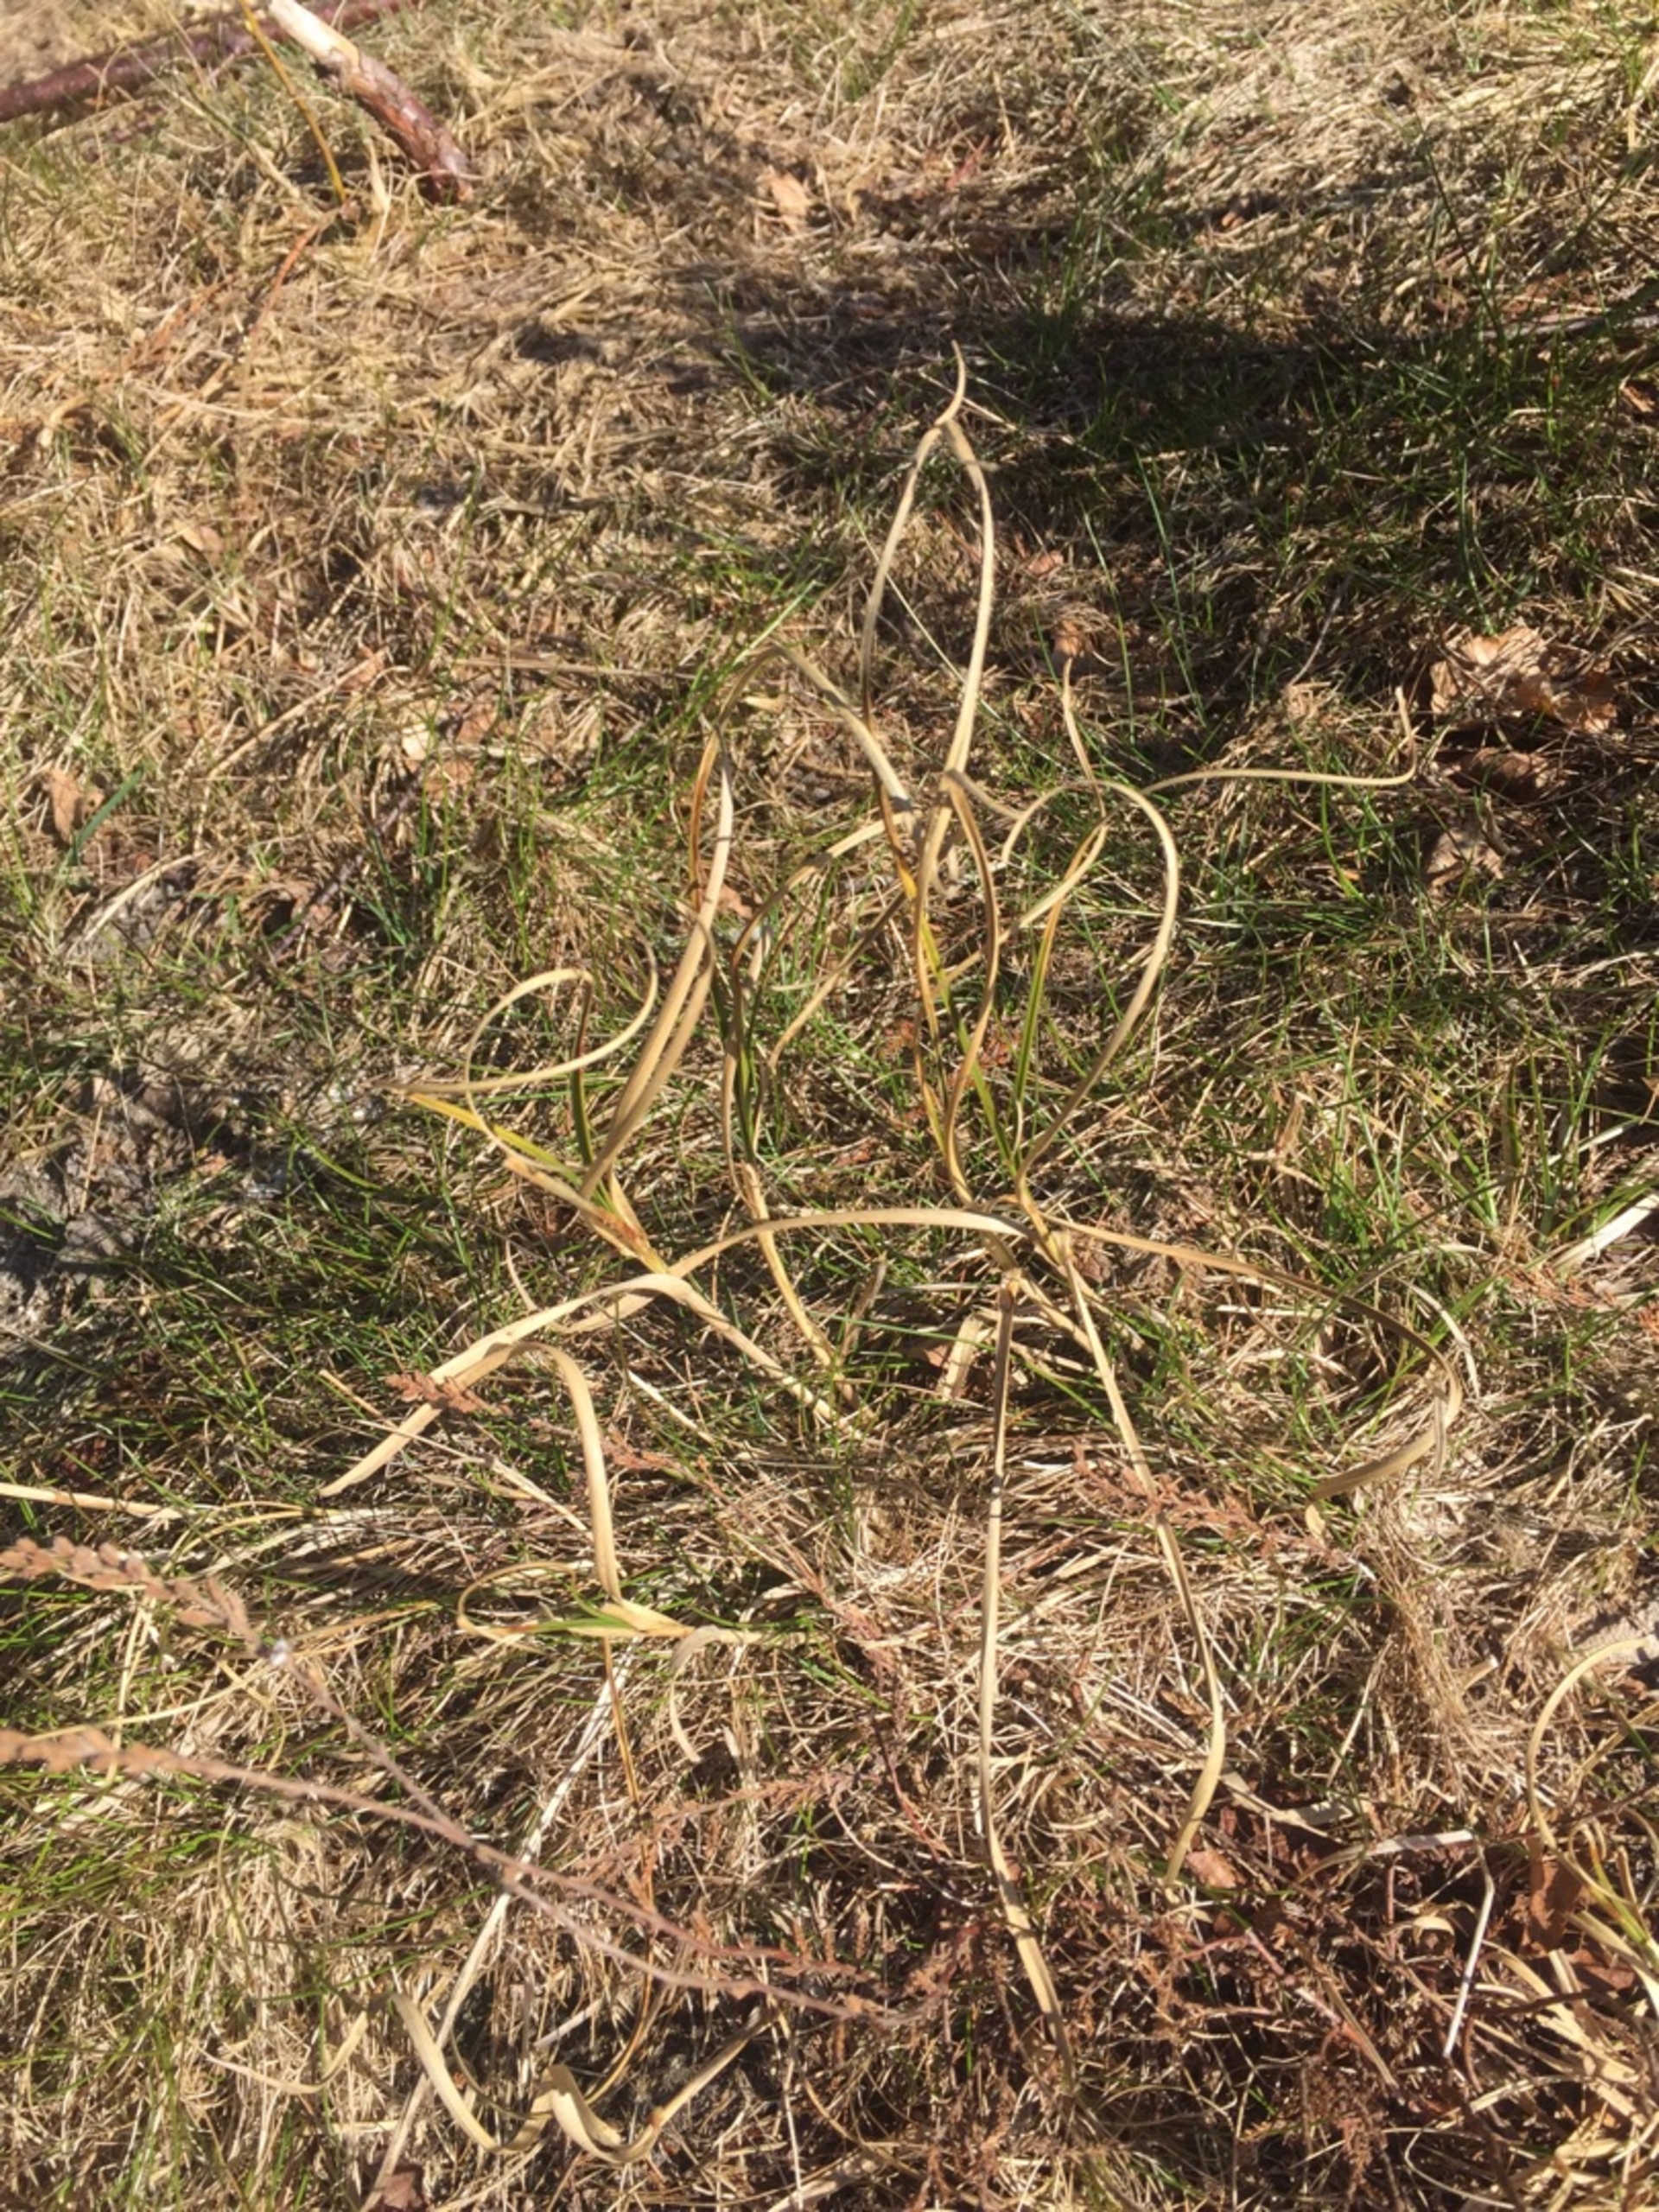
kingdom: Plantae
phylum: Tracheophyta
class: Liliopsida
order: Poales
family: Cyperaceae
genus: Carex
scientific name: Carex arenaria
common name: Sand-star
